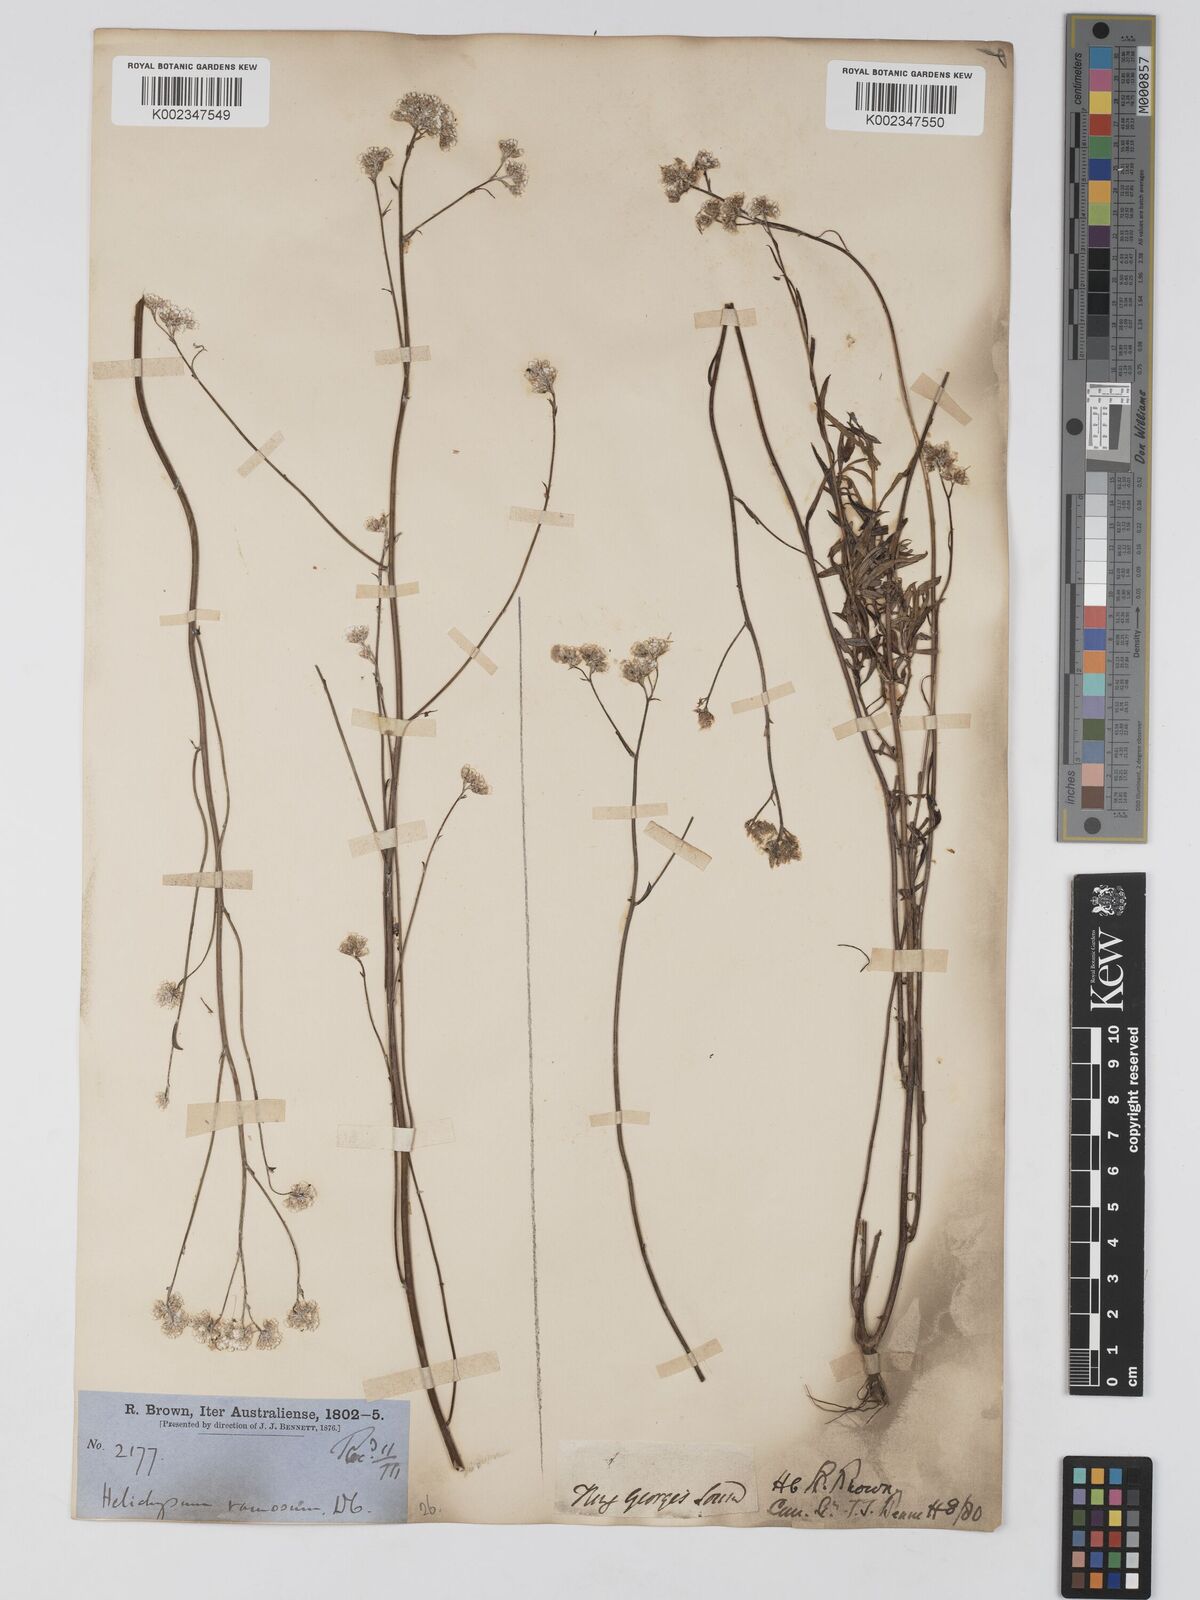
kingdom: Plantae
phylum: Tracheophyta
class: Magnoliopsida
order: Asterales
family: Asteraceae
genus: Pithocarpa
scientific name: Pithocarpa ramosa
